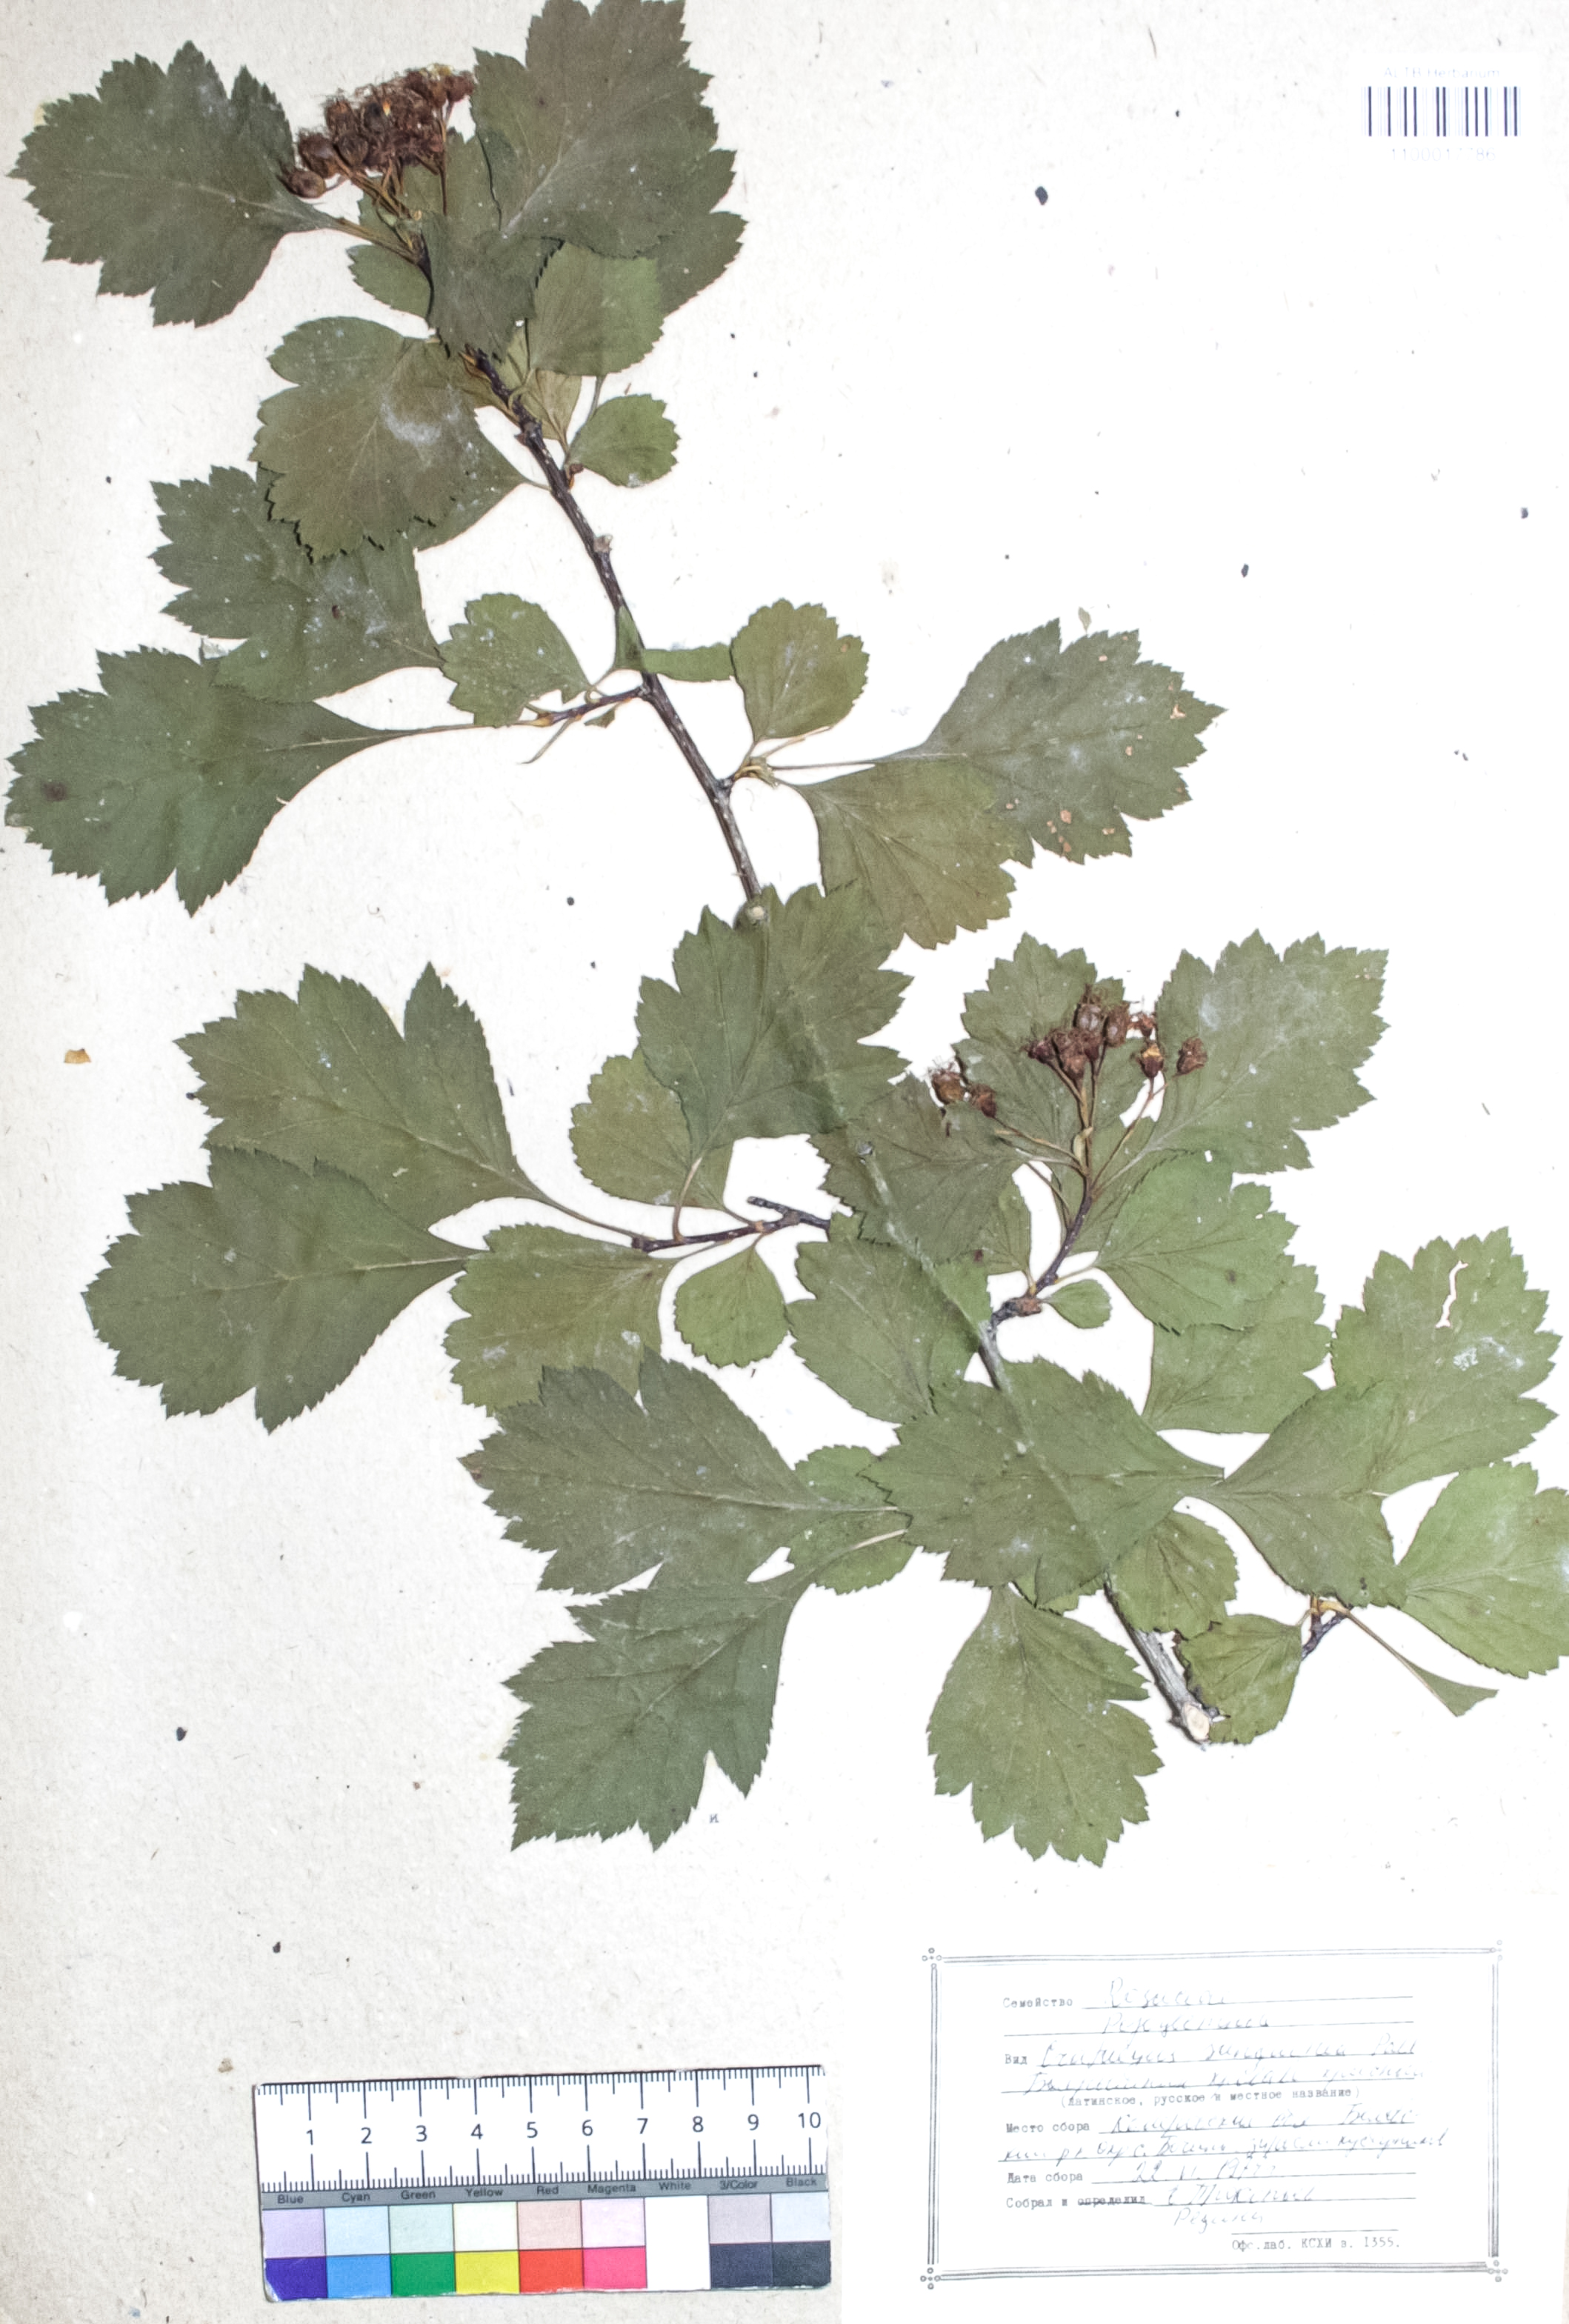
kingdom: Plantae
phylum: Tracheophyta
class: Magnoliopsida
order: Rosales
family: Rosaceae
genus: Crataegus
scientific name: Crataegus sanguinea
